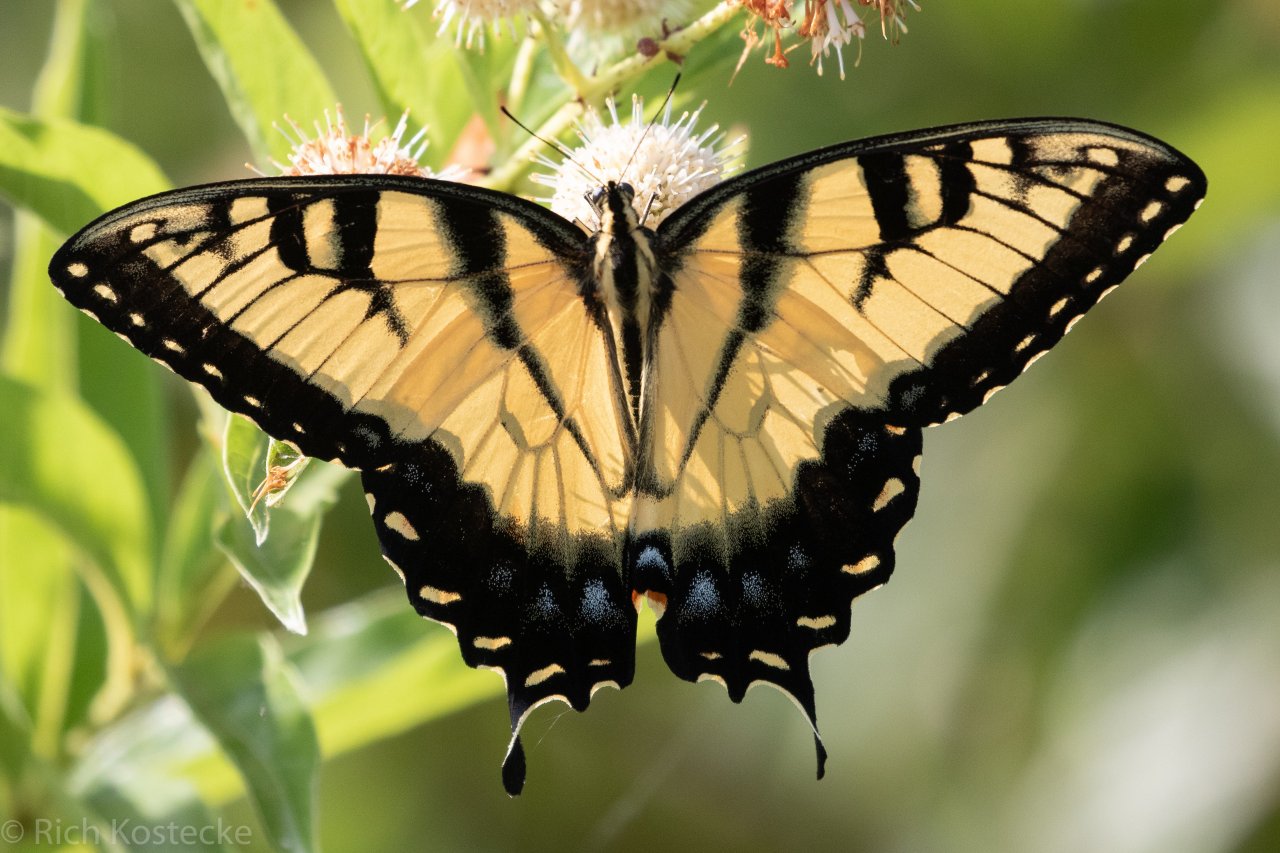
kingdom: Animalia
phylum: Arthropoda
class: Insecta
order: Lepidoptera
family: Papilionidae
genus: Pterourus
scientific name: Pterourus glaucus
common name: Eastern Tiger Swallowtail
